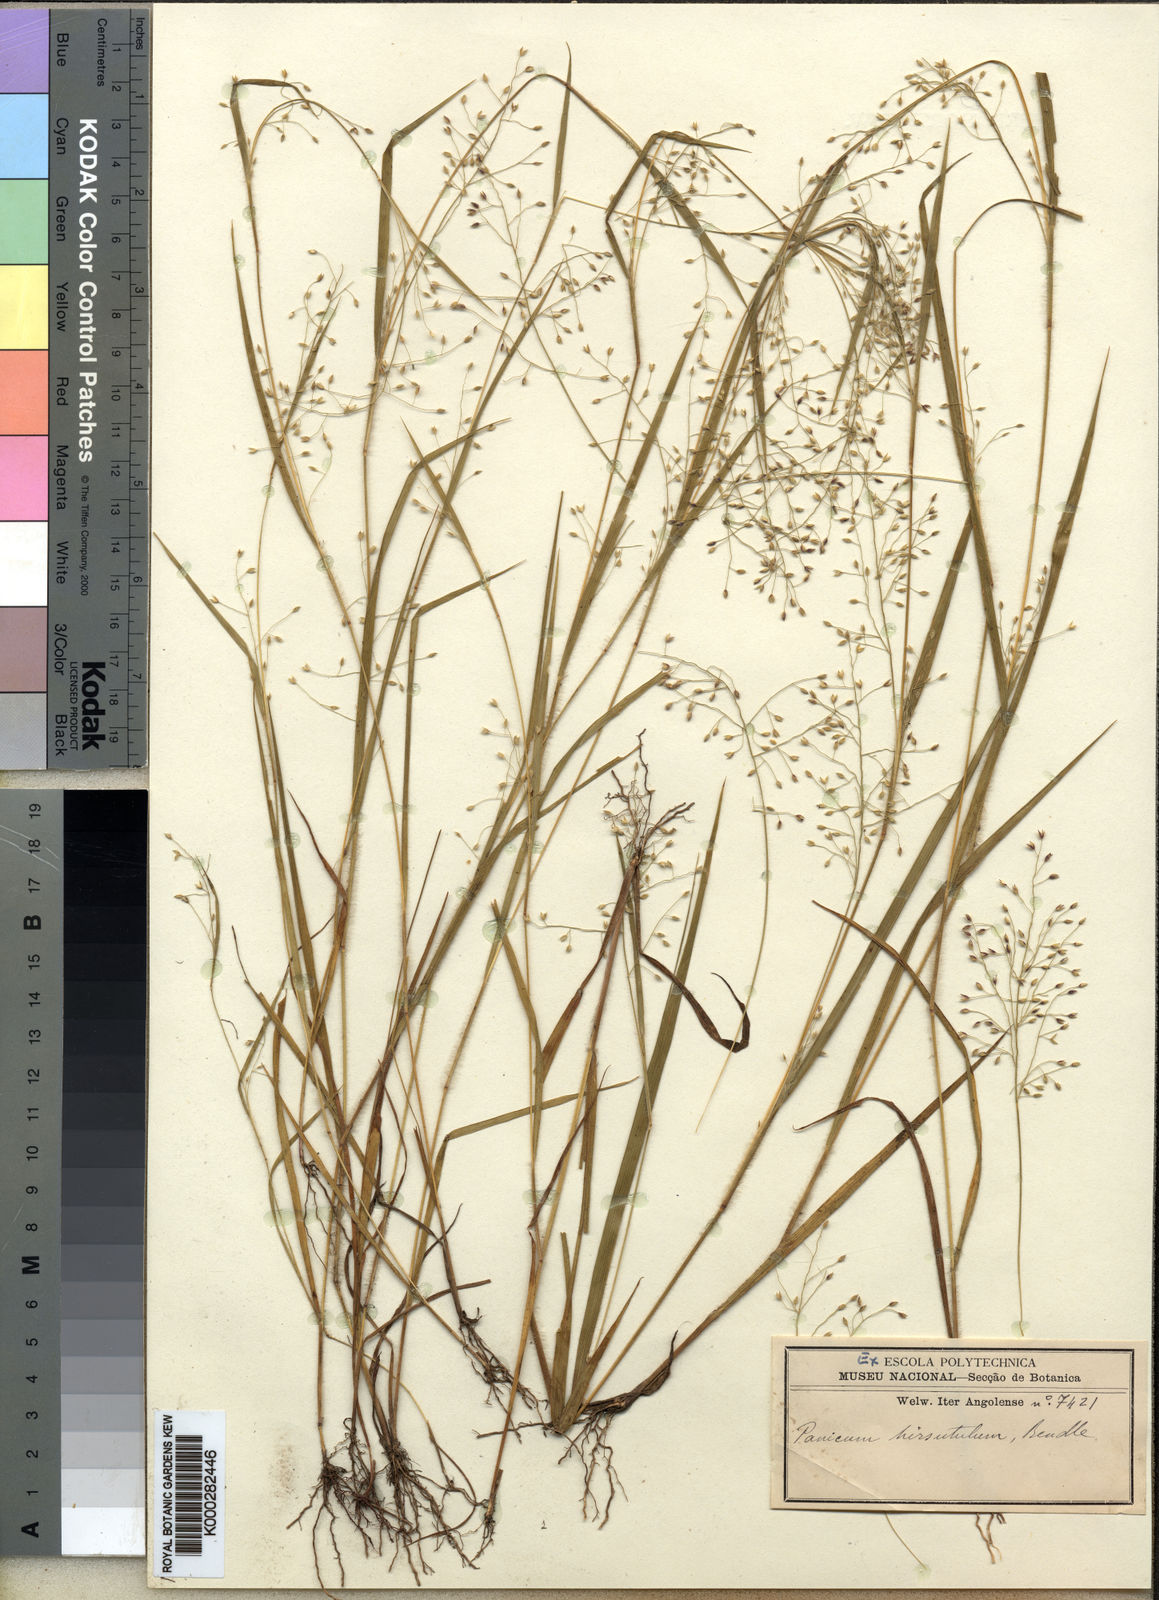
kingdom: Plantae
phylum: Tracheophyta
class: Liliopsida
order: Poales
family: Poaceae
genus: Panicum
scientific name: Panicum griffonii
